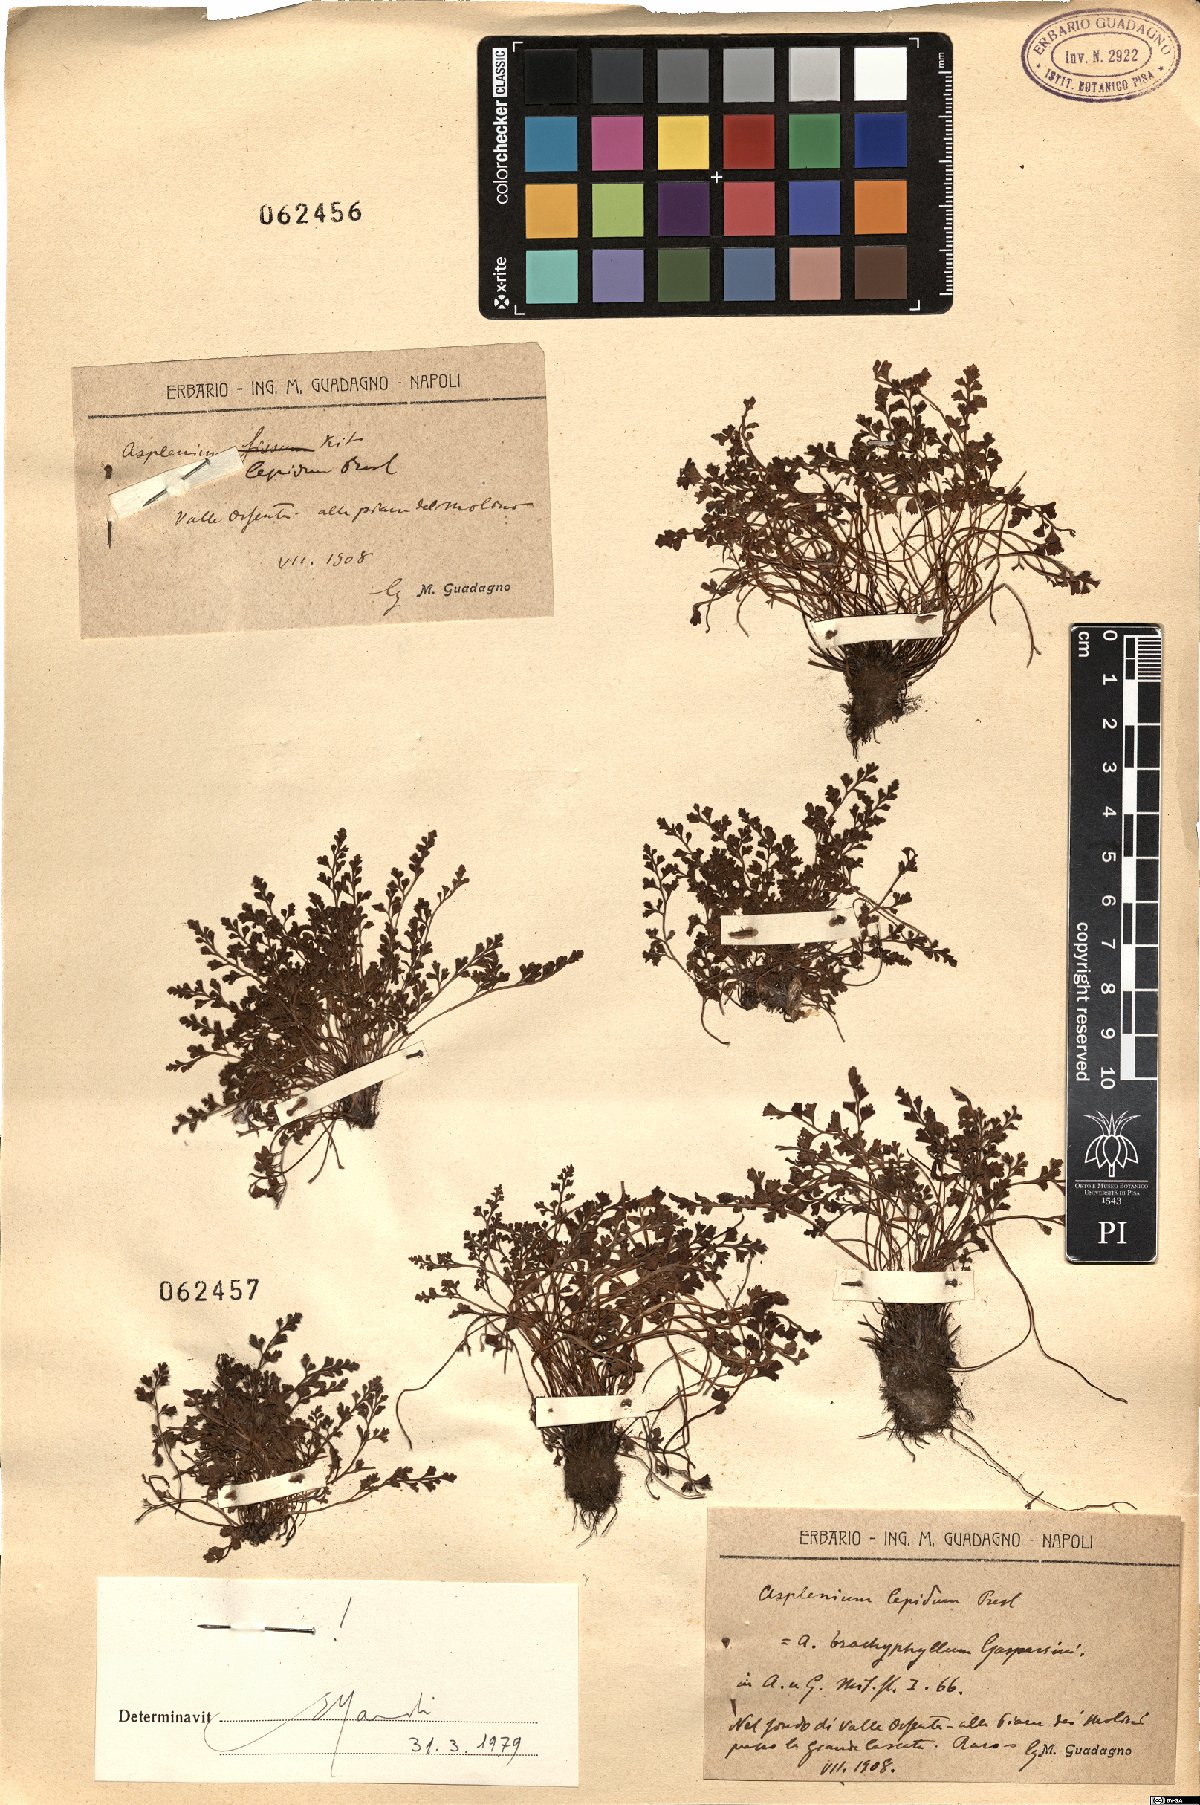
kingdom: Plantae
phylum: Tracheophyta
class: Polypodiopsida
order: Polypodiales
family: Aspleniaceae
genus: Asplenium
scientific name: Asplenium lepidum
